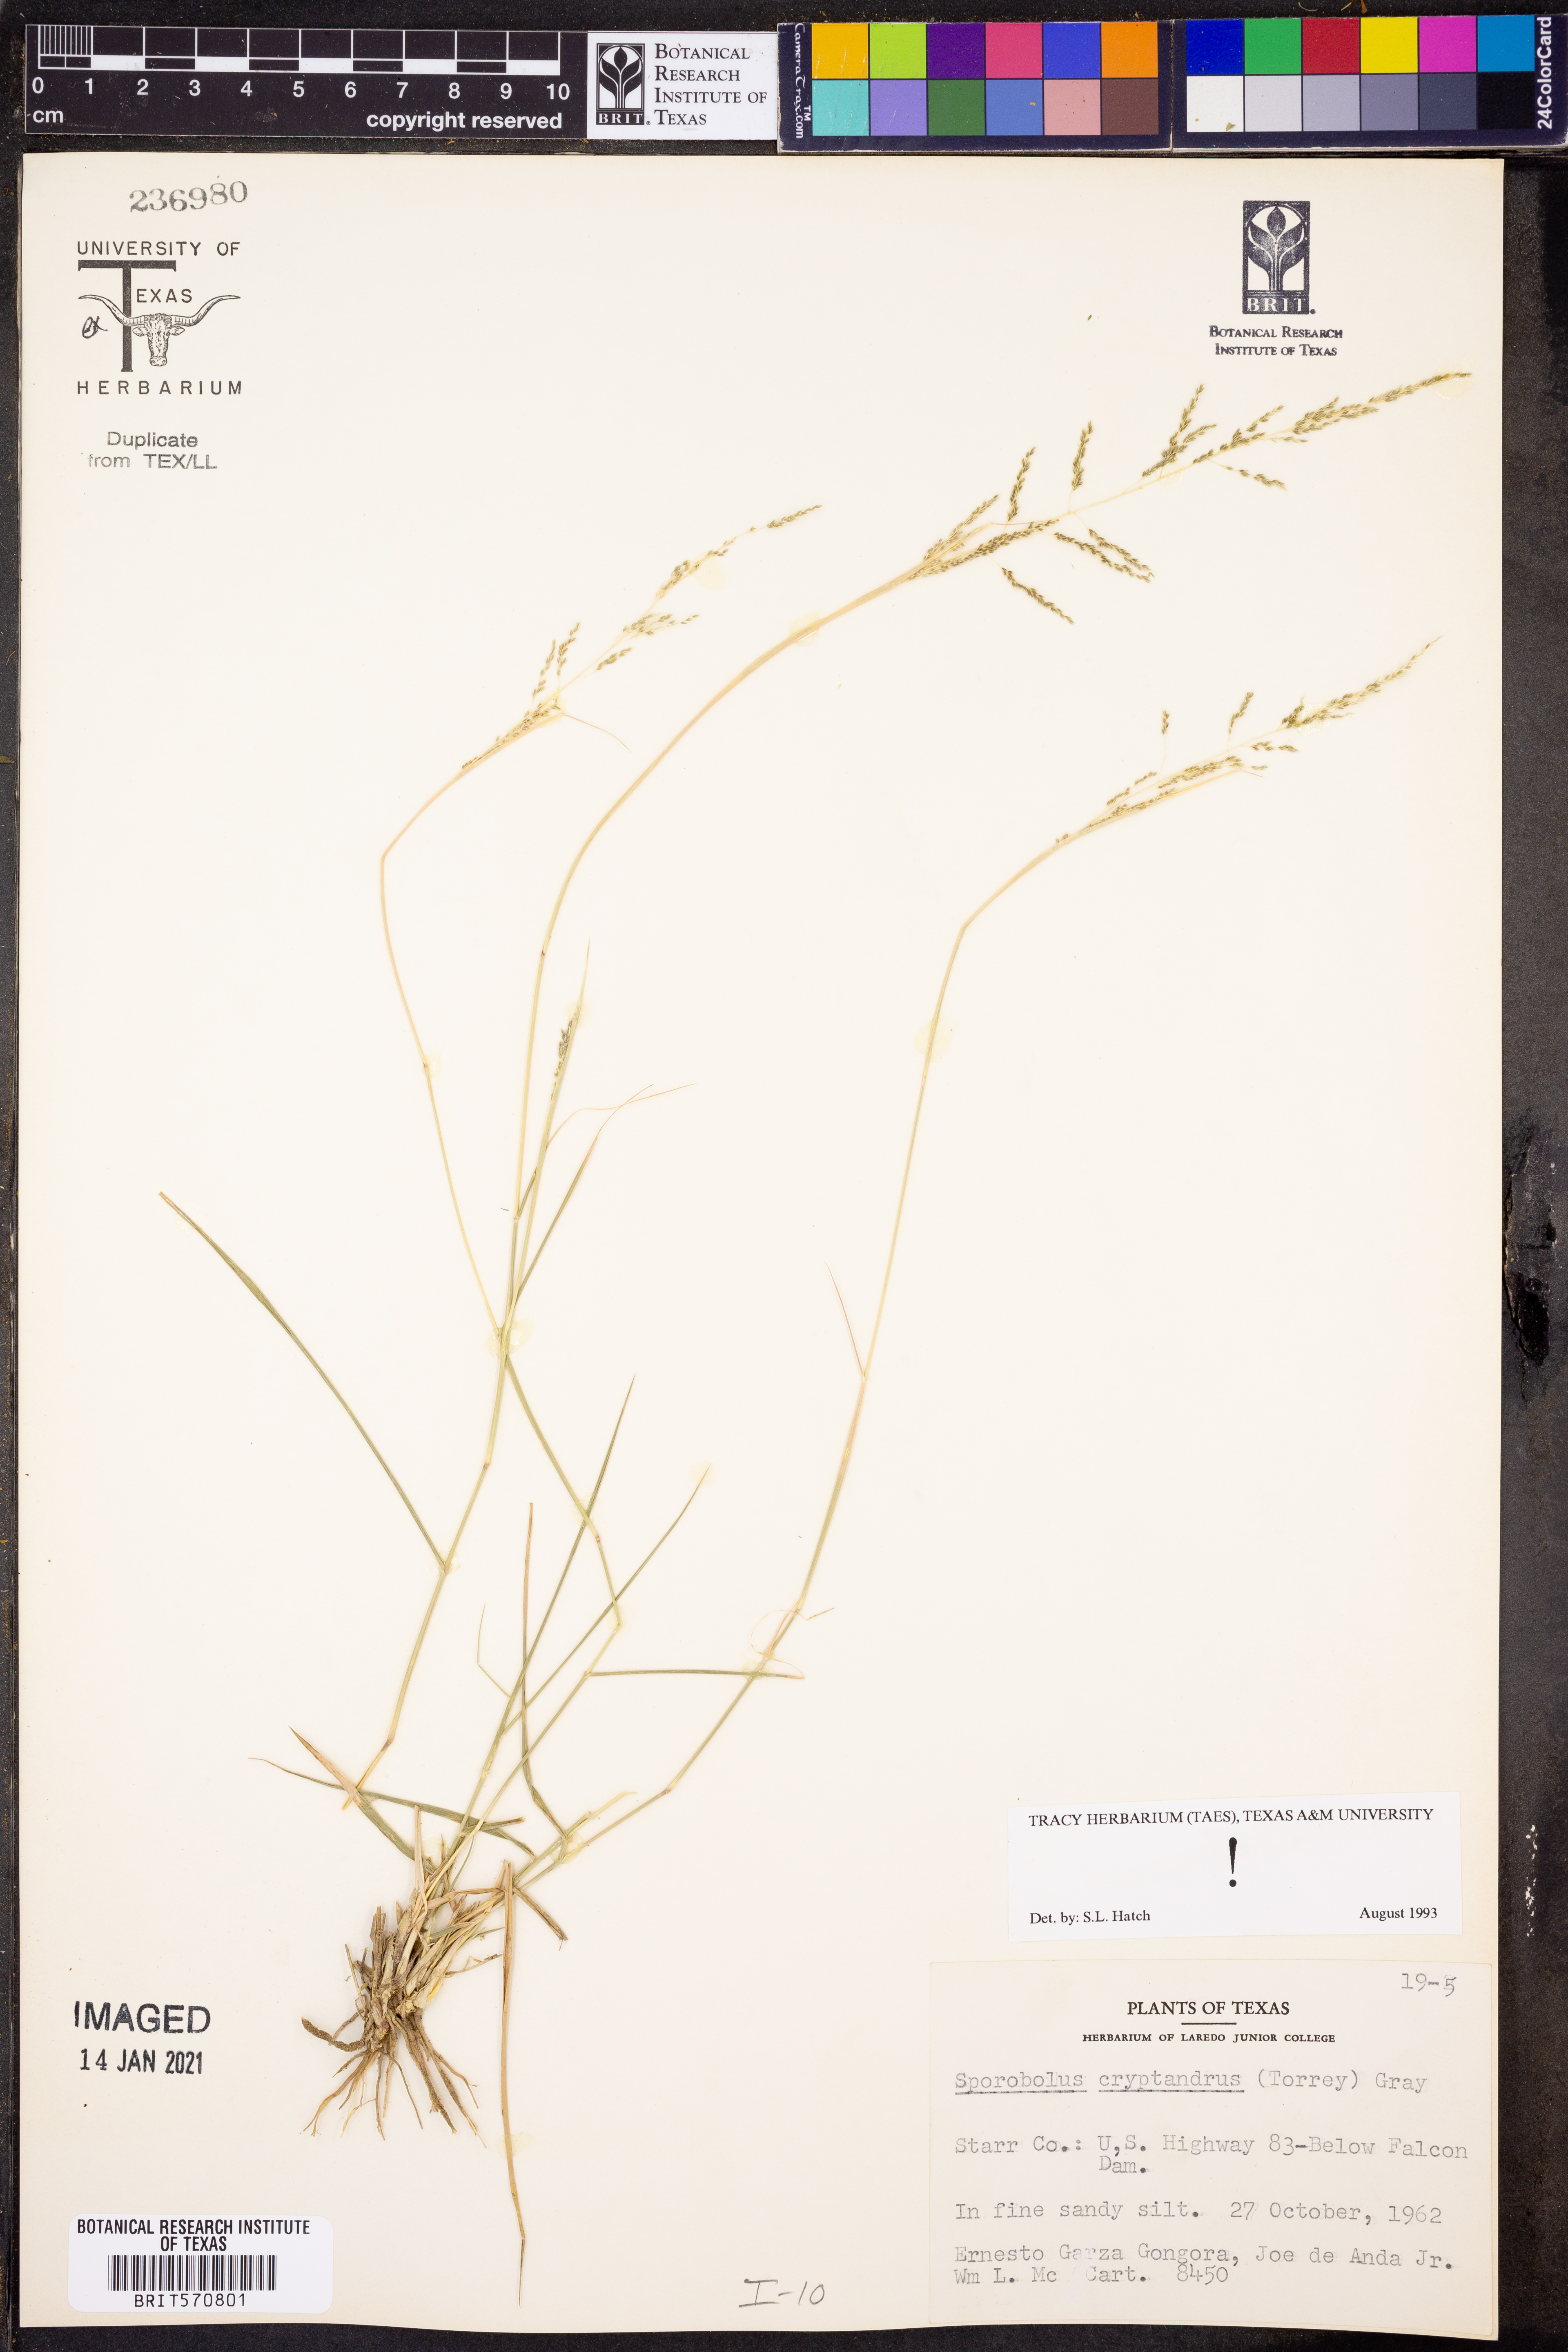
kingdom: Plantae
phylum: Tracheophyta
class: Liliopsida
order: Poales
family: Poaceae
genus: Sporobolus
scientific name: Sporobolus cryptandrus
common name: Sand dropseed
